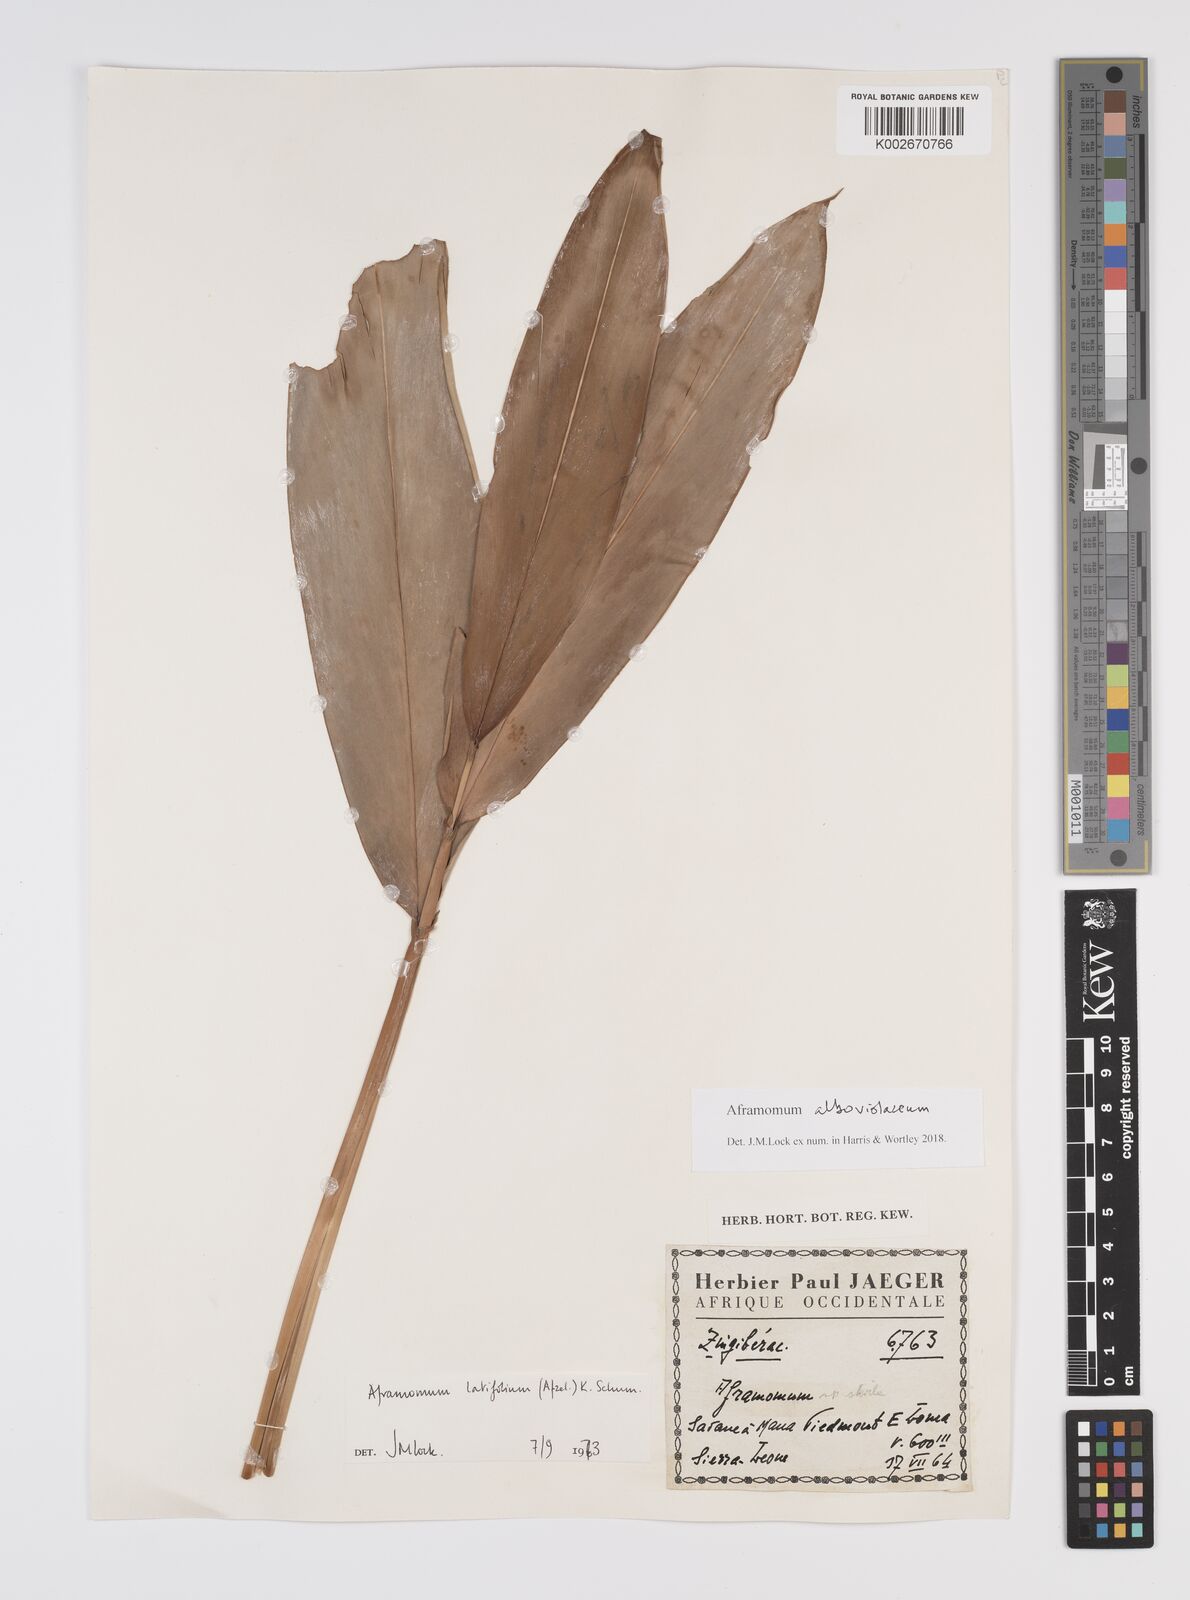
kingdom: Plantae
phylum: Tracheophyta
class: Liliopsida
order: Zingiberales
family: Zingiberaceae
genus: Aframomum
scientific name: Aframomum alboviolaceum
